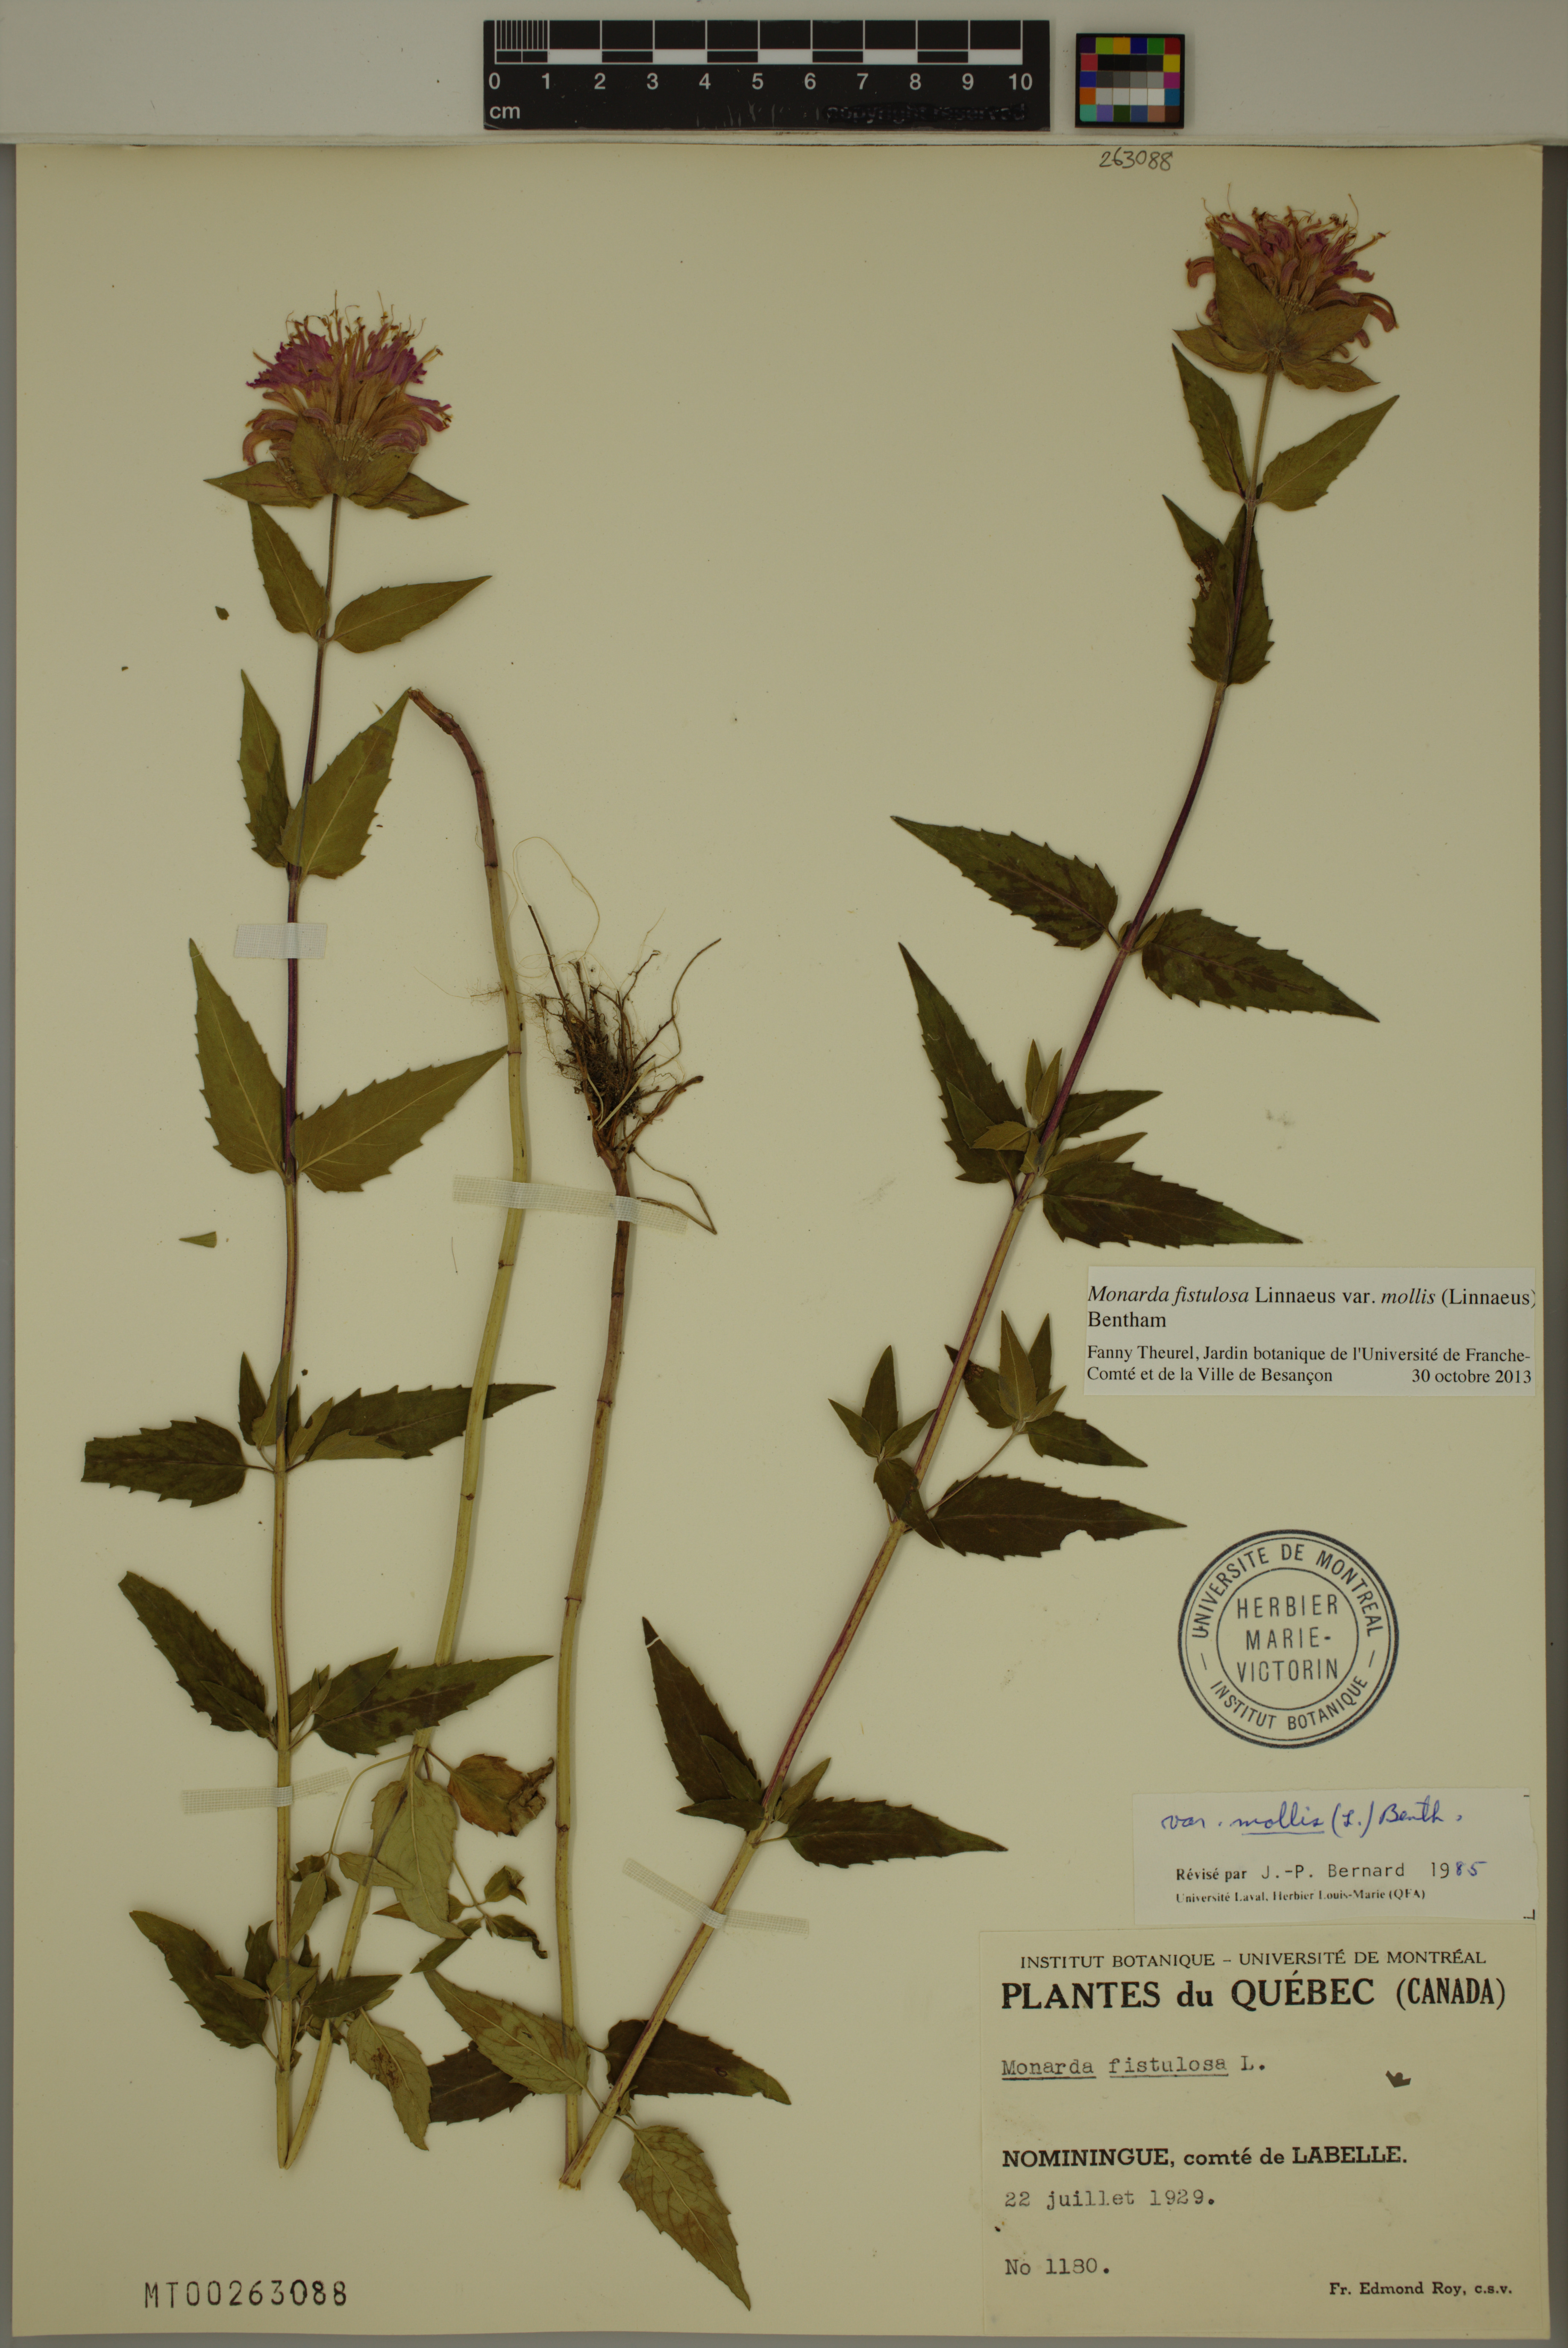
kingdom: Plantae
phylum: Tracheophyta
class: Magnoliopsida
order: Lamiales
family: Lamiaceae
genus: Monarda
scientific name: Monarda fistulosa
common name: Purple beebalm
